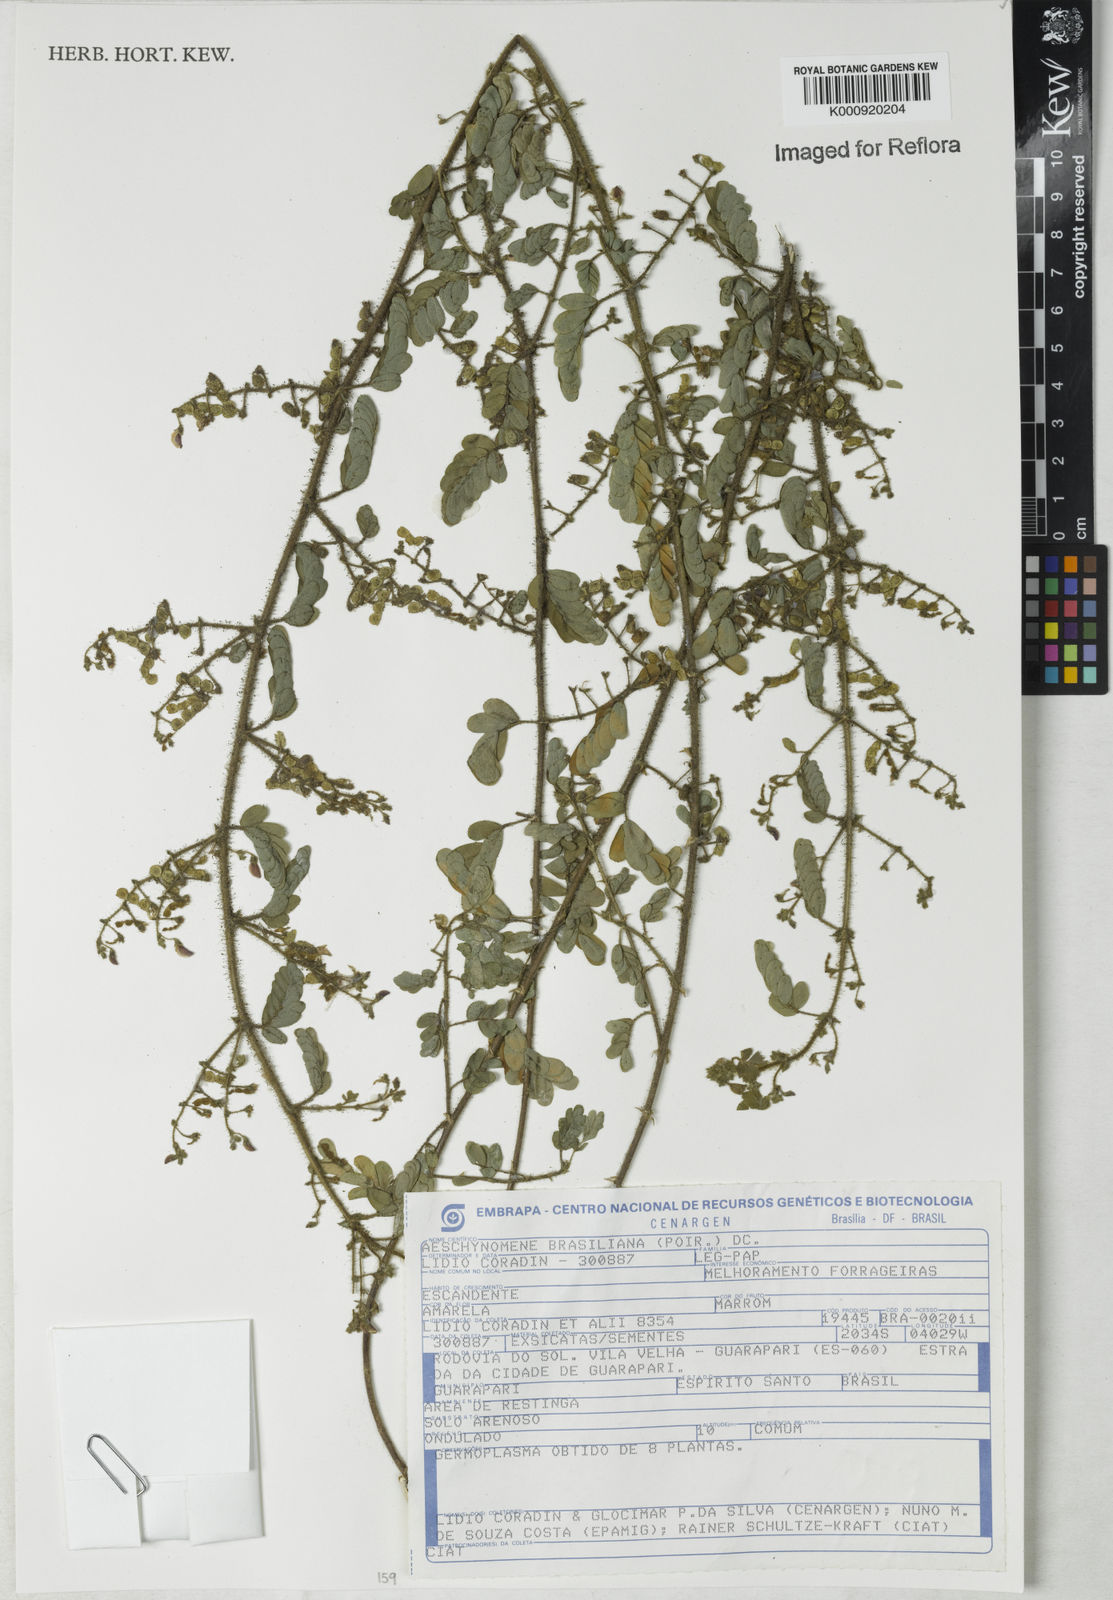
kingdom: Plantae
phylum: Tracheophyta
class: Magnoliopsida
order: Fabales
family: Fabaceae
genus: Ctenodon
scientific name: Ctenodon brasilianus
